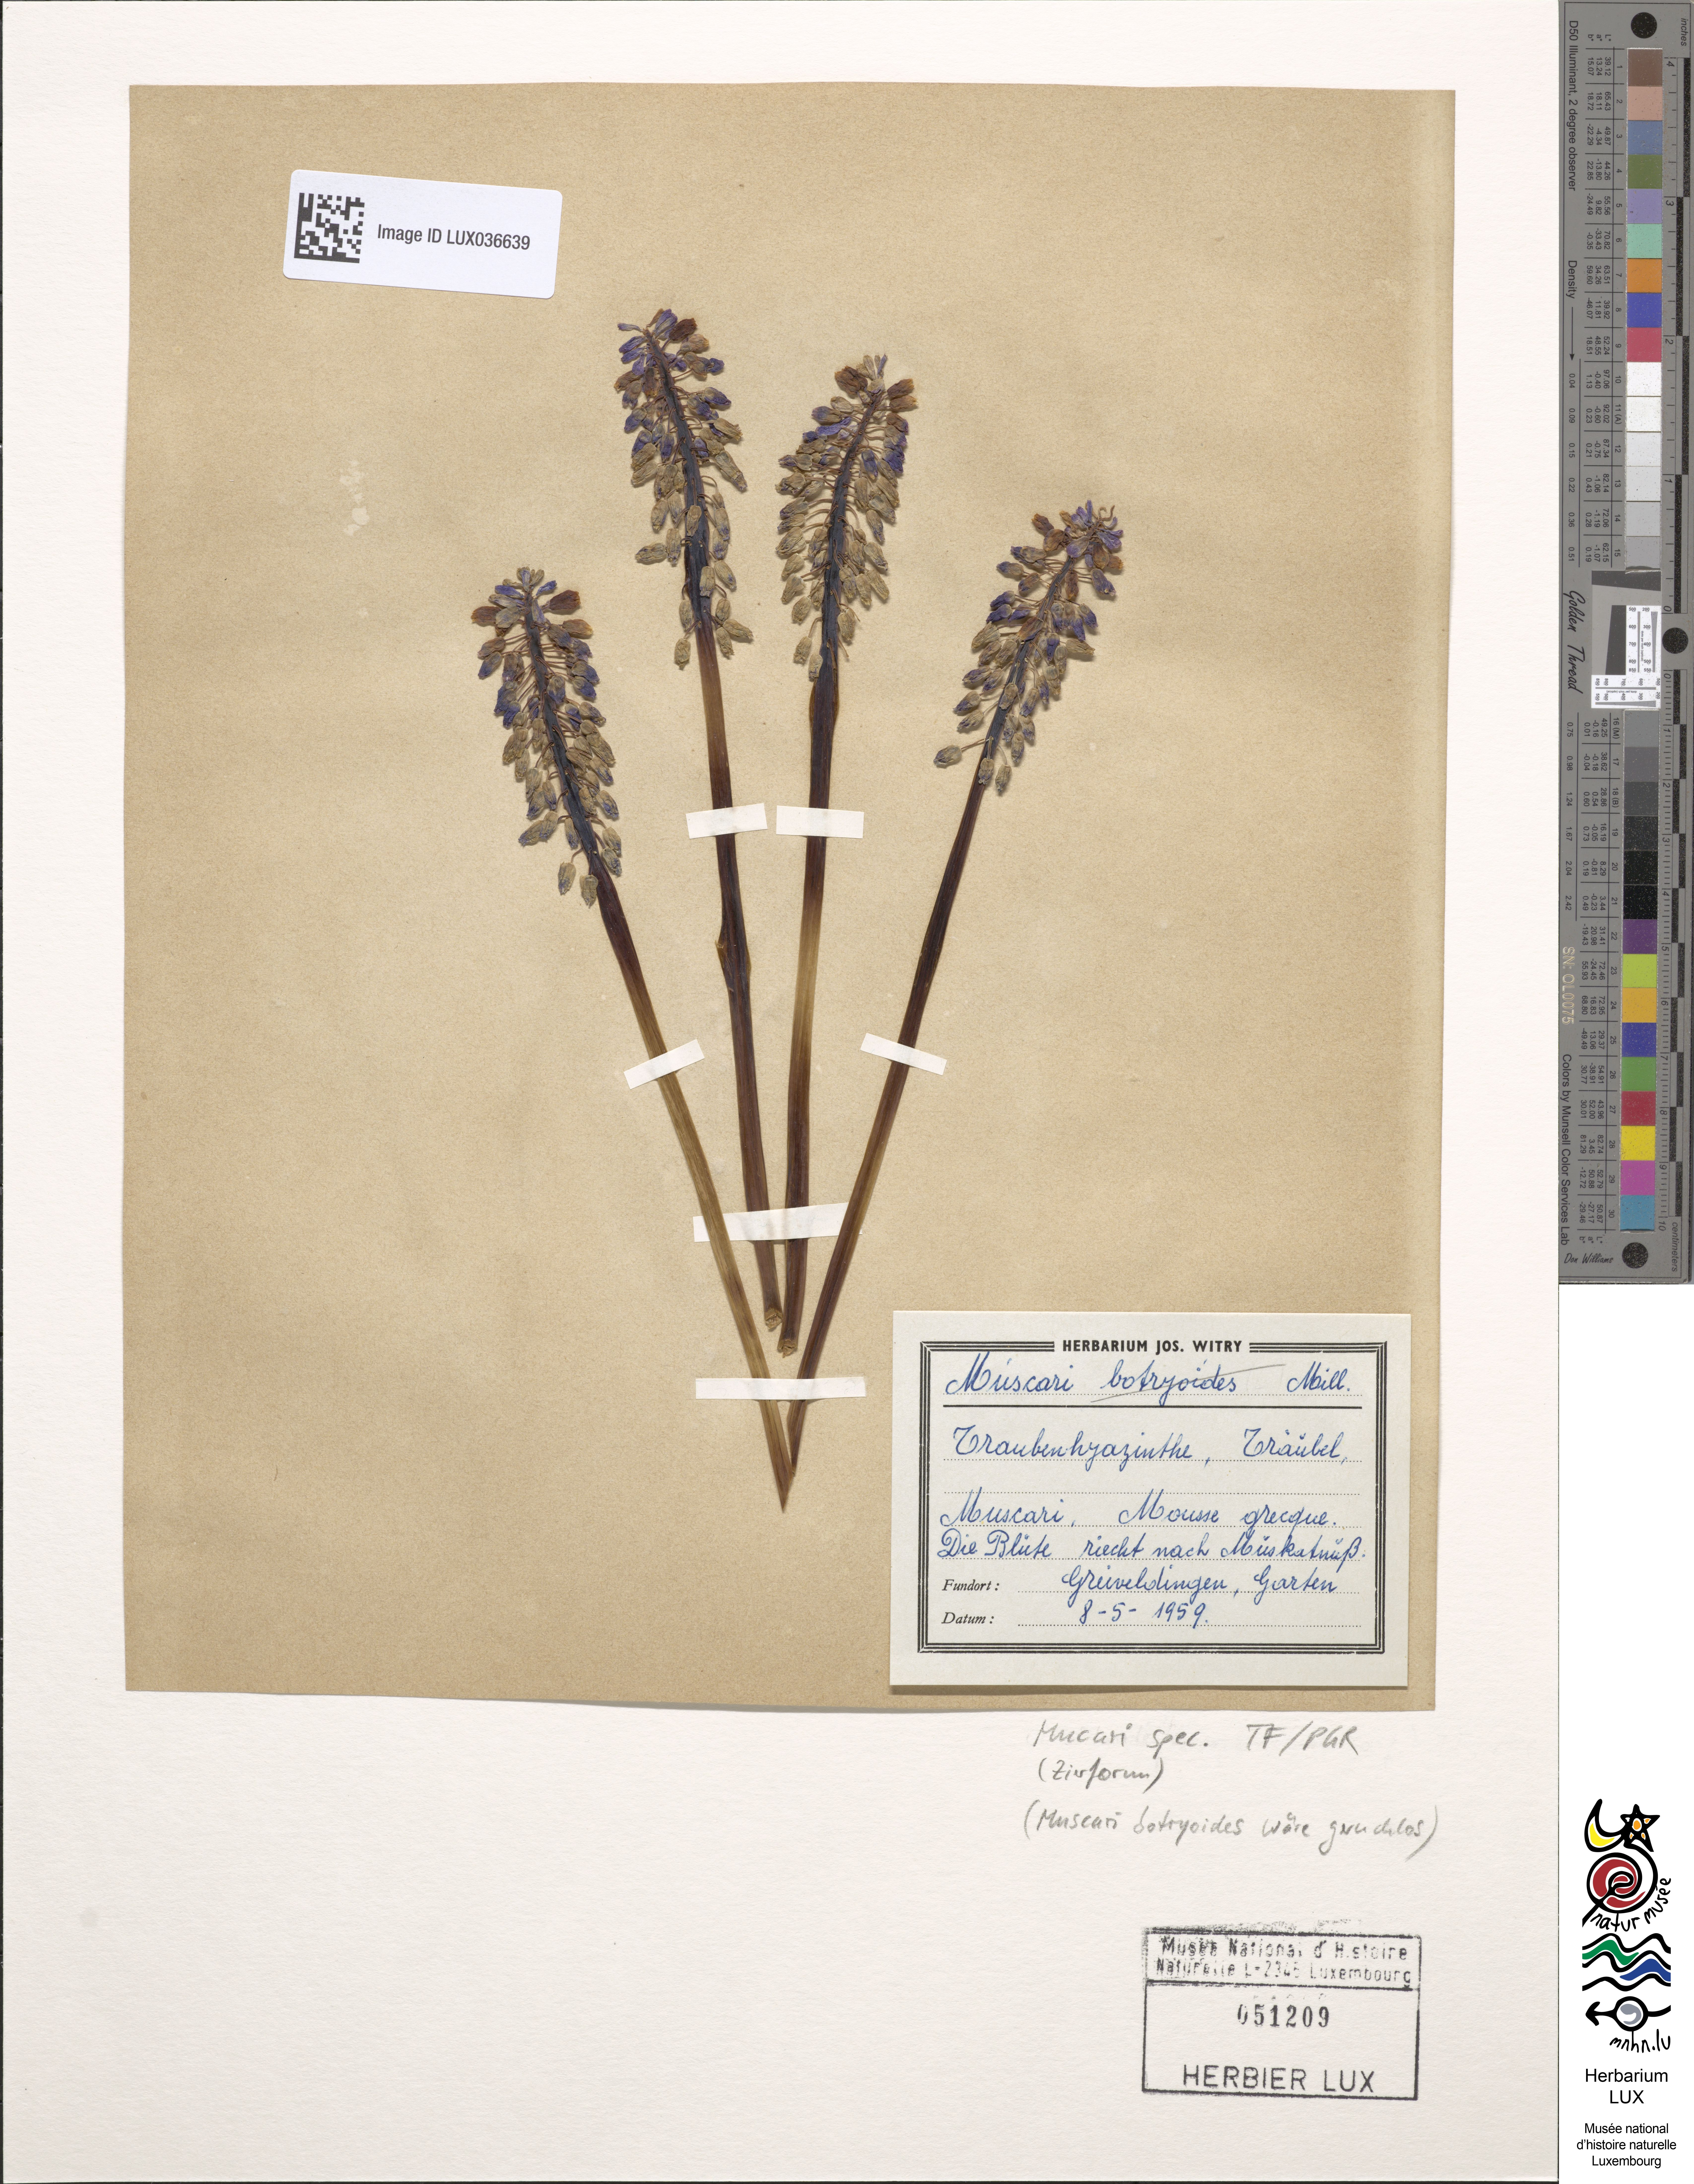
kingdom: Plantae
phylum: Tracheophyta
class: Liliopsida
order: Asparagales
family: Asparagaceae
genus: Muscari
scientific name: Muscari
